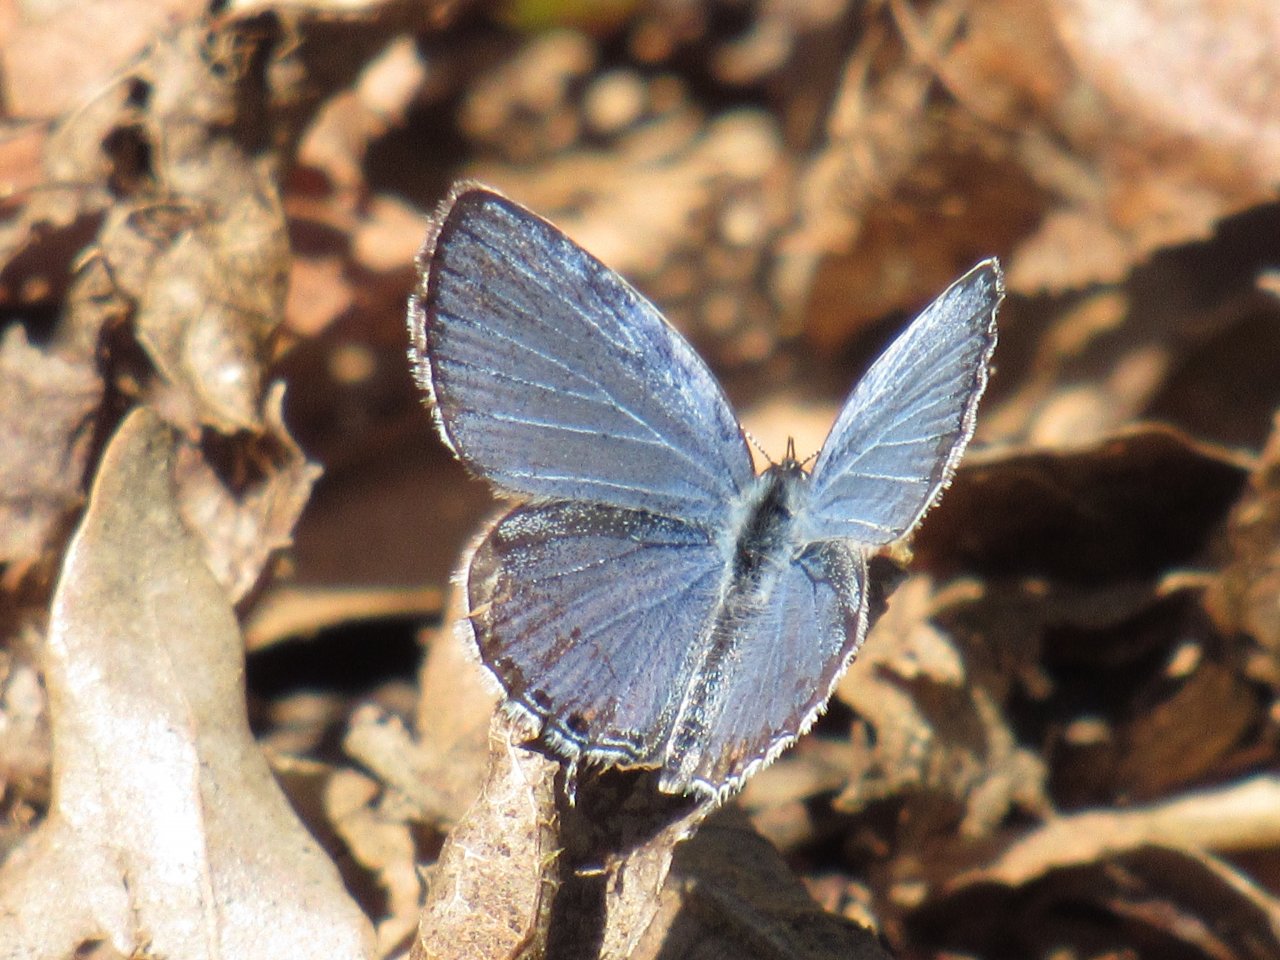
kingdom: Animalia
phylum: Arthropoda
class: Insecta
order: Lepidoptera
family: Lycaenidae
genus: Elkalyce
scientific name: Elkalyce comyntas
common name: Eastern Tailed-Blue
